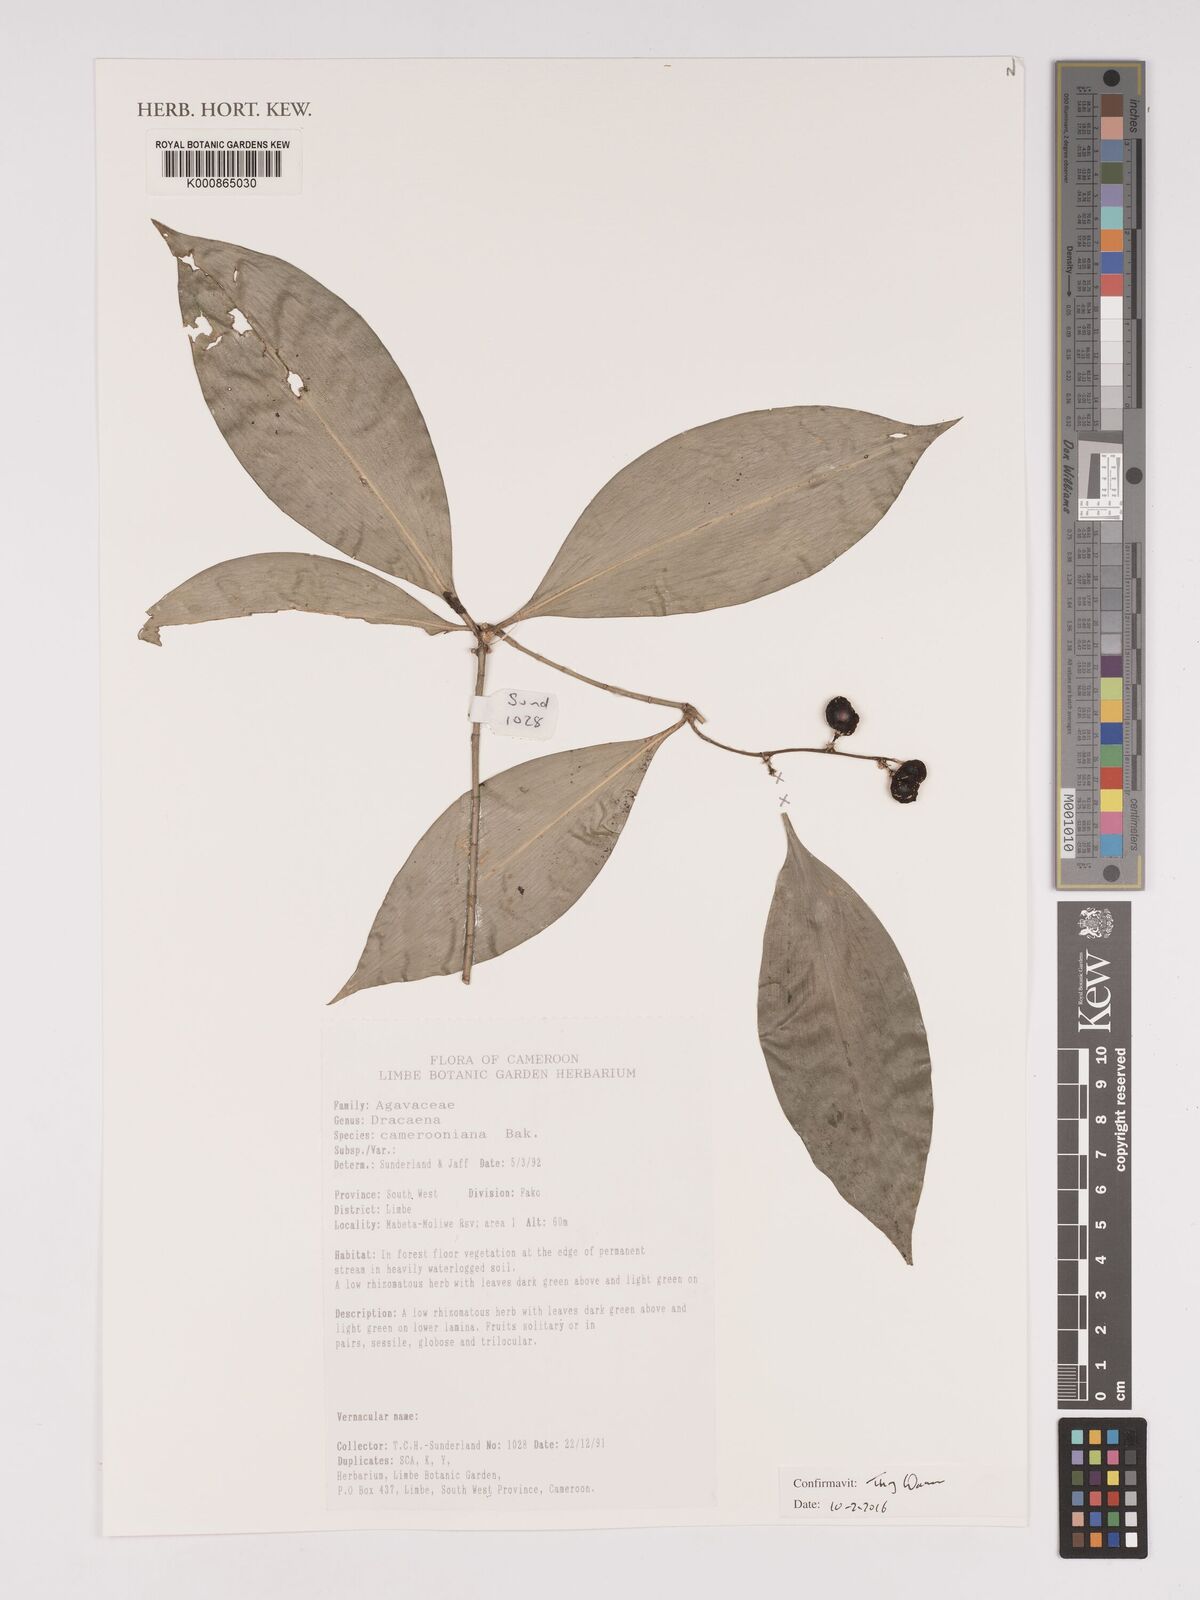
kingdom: Plantae
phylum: Tracheophyta
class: Liliopsida
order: Asparagales
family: Asparagaceae
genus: Dracaena
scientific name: Dracaena camerooniana
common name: Dragon tree
